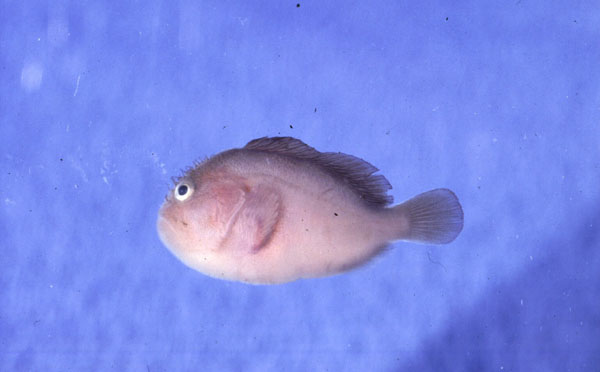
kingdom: Animalia
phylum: Chordata
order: Scorpaeniformes
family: Scorpaenidae
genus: Caracanthus
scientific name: Caracanthus unipinna
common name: Coral croucher
